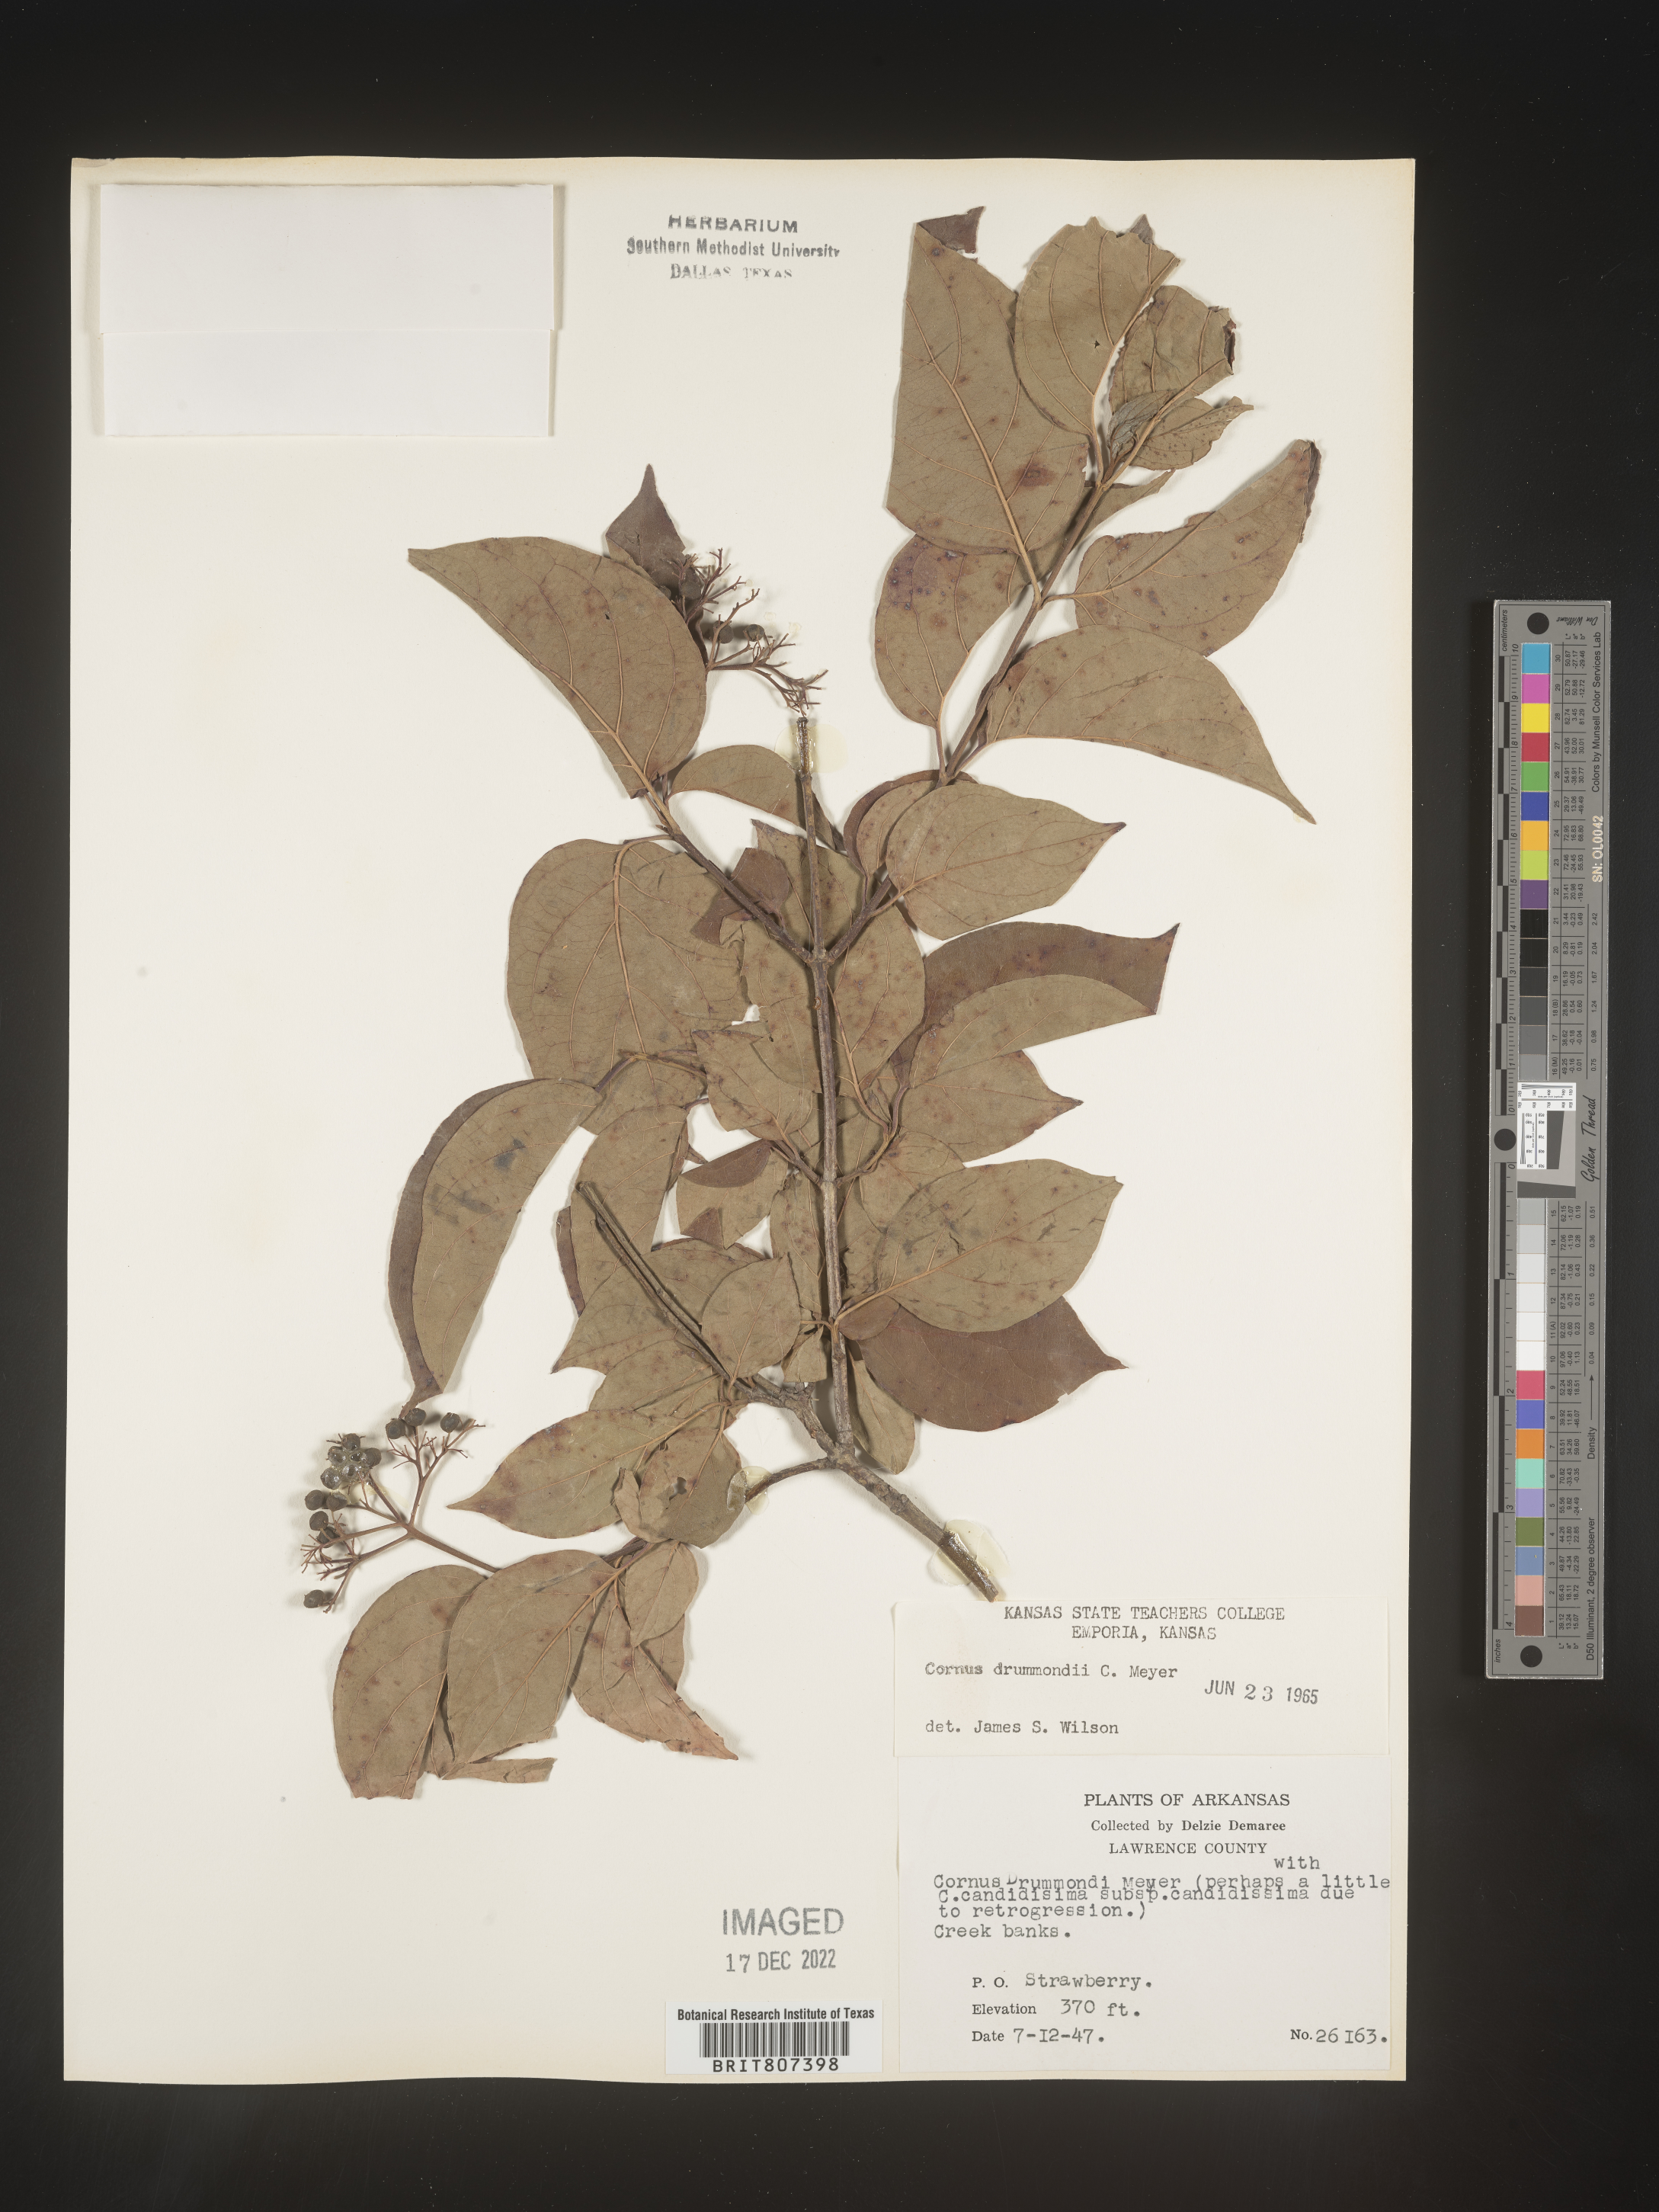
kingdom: Plantae
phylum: Tracheophyta
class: Magnoliopsida
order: Cornales
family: Cornaceae
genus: Cornus
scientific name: Cornus drummondii
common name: Rough-leaf dogwood
